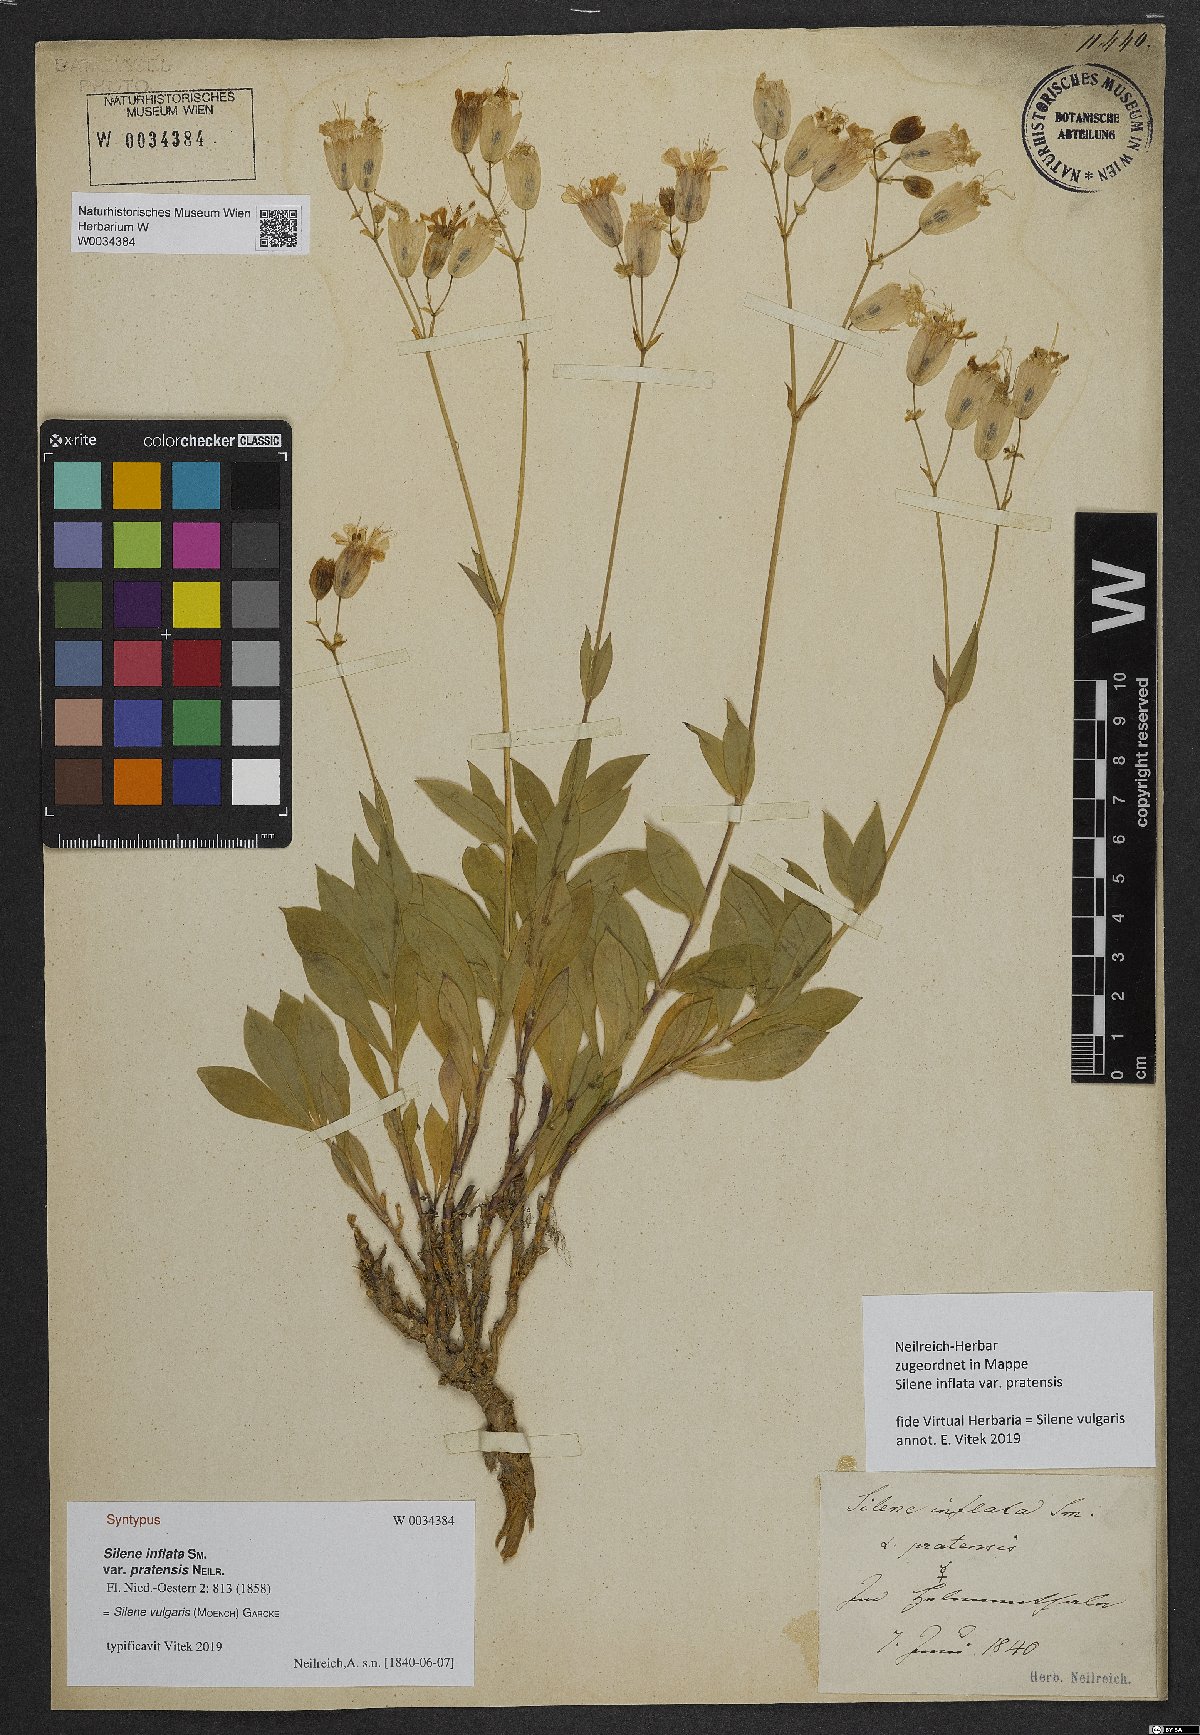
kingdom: Plantae
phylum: Tracheophyta
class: Magnoliopsida
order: Caryophyllales
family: Caryophyllaceae
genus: Silene
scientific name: Silene vulgaris
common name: Bladder campion
